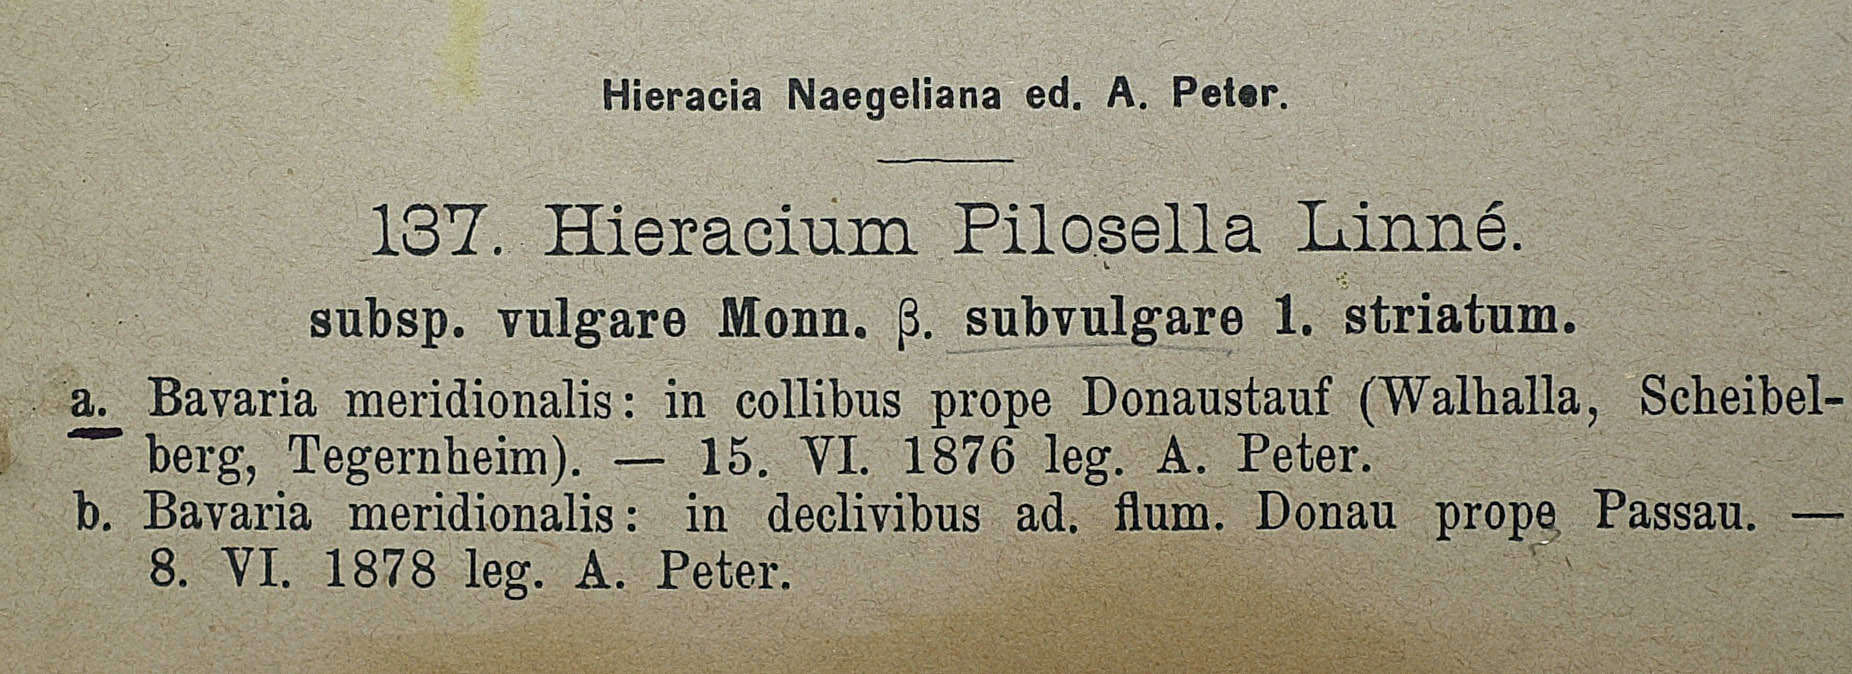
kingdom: Plantae
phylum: Tracheophyta
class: Magnoliopsida
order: Asterales
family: Asteraceae
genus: Pilosella
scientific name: Pilosella officinarum
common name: Mouse-ear hawkweed
